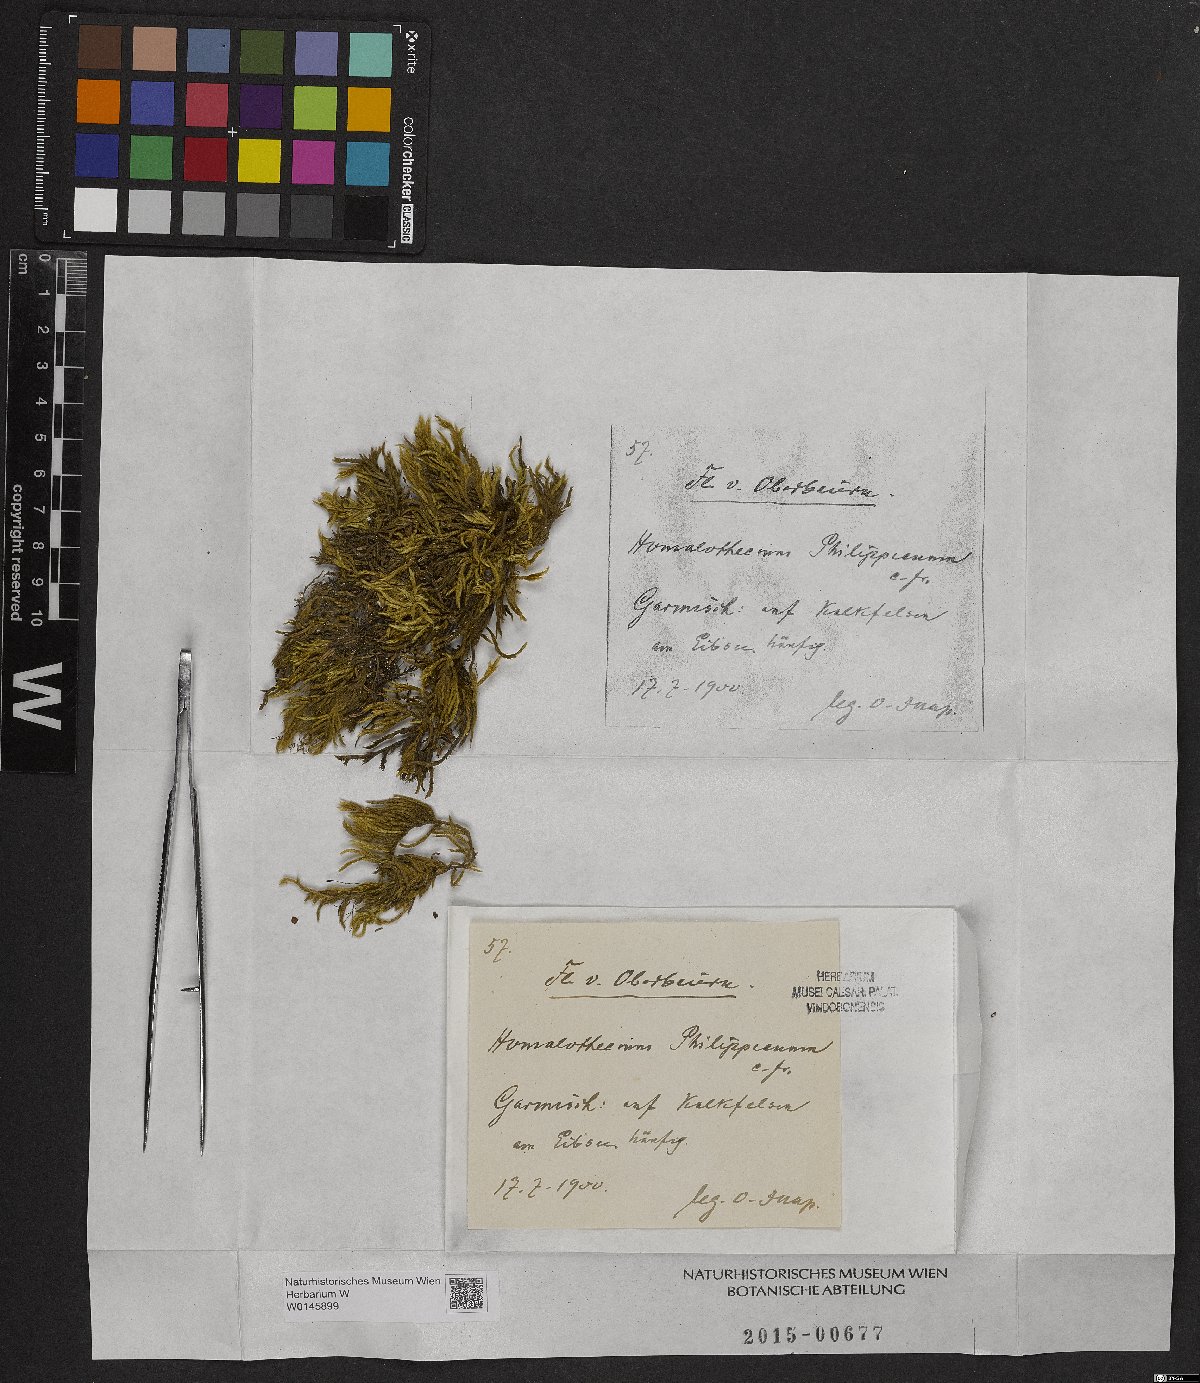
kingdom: Plantae
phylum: Bryophyta
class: Bryopsida
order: Hypnales
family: Brachytheciaceae
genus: Homalothecium
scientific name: Homalothecium philippeanum
